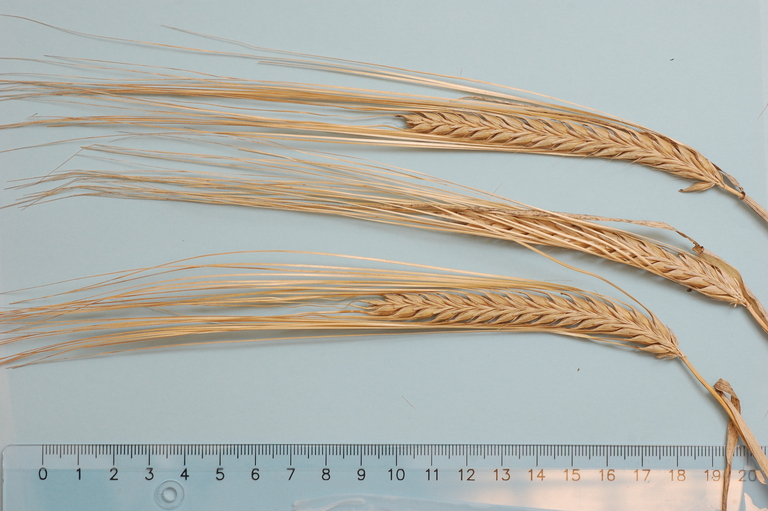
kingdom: Plantae
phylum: Tracheophyta
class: Liliopsida
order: Poales
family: Poaceae
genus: Hordeum
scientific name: Hordeum vulgare
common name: Common barley
